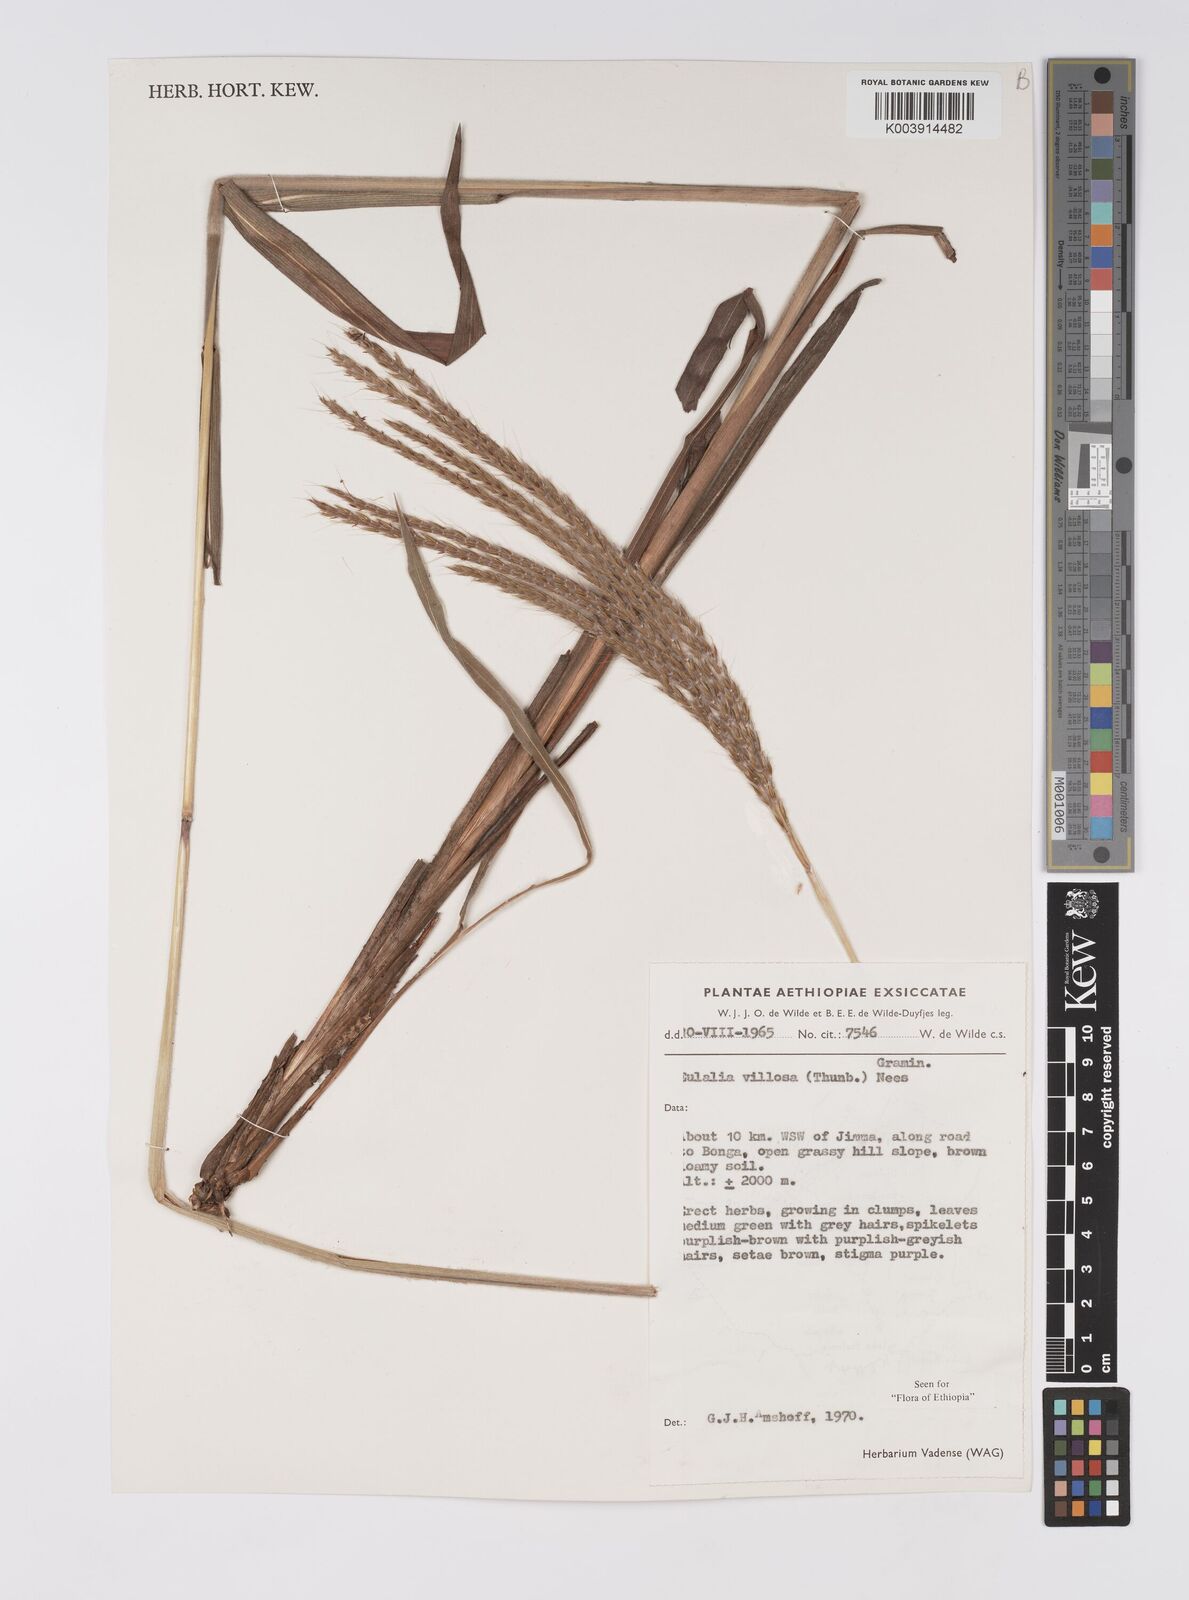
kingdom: Plantae
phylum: Tracheophyta
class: Liliopsida
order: Poales
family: Poaceae
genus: Eulalia
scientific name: Eulalia villosa
